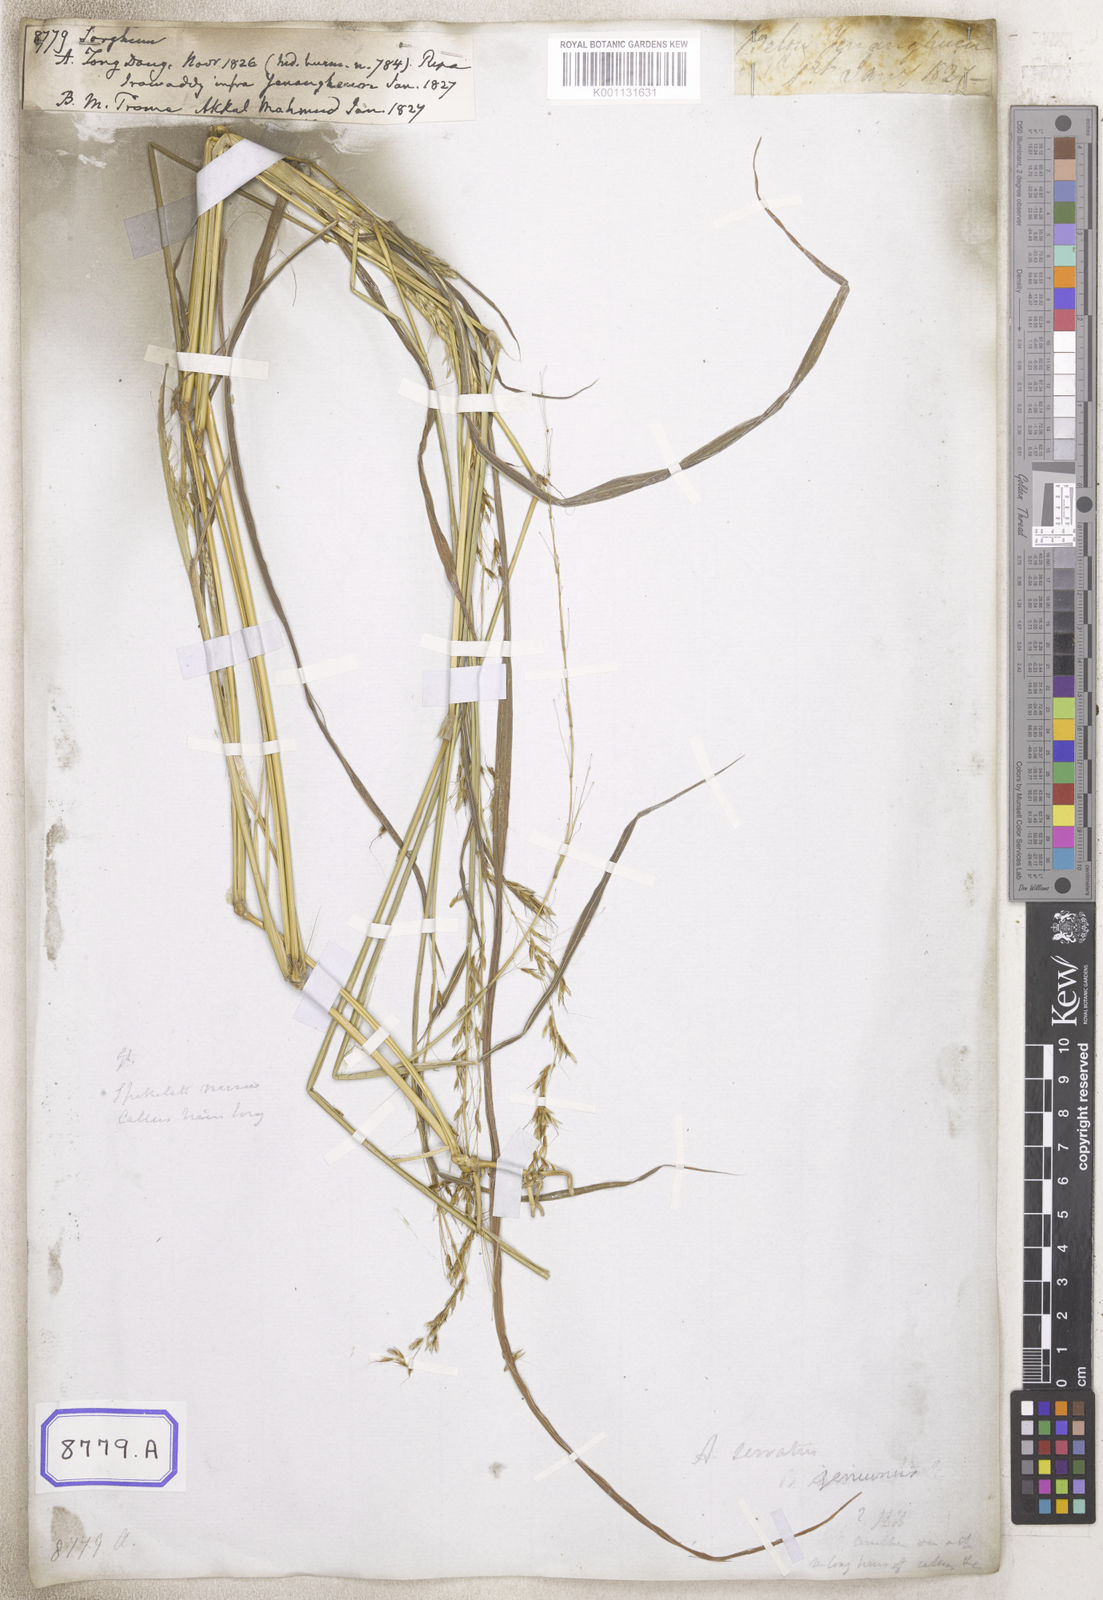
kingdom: Plantae
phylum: Tracheophyta
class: Liliopsida
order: Poales
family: Poaceae
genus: Sorghum
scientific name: Sorghum
